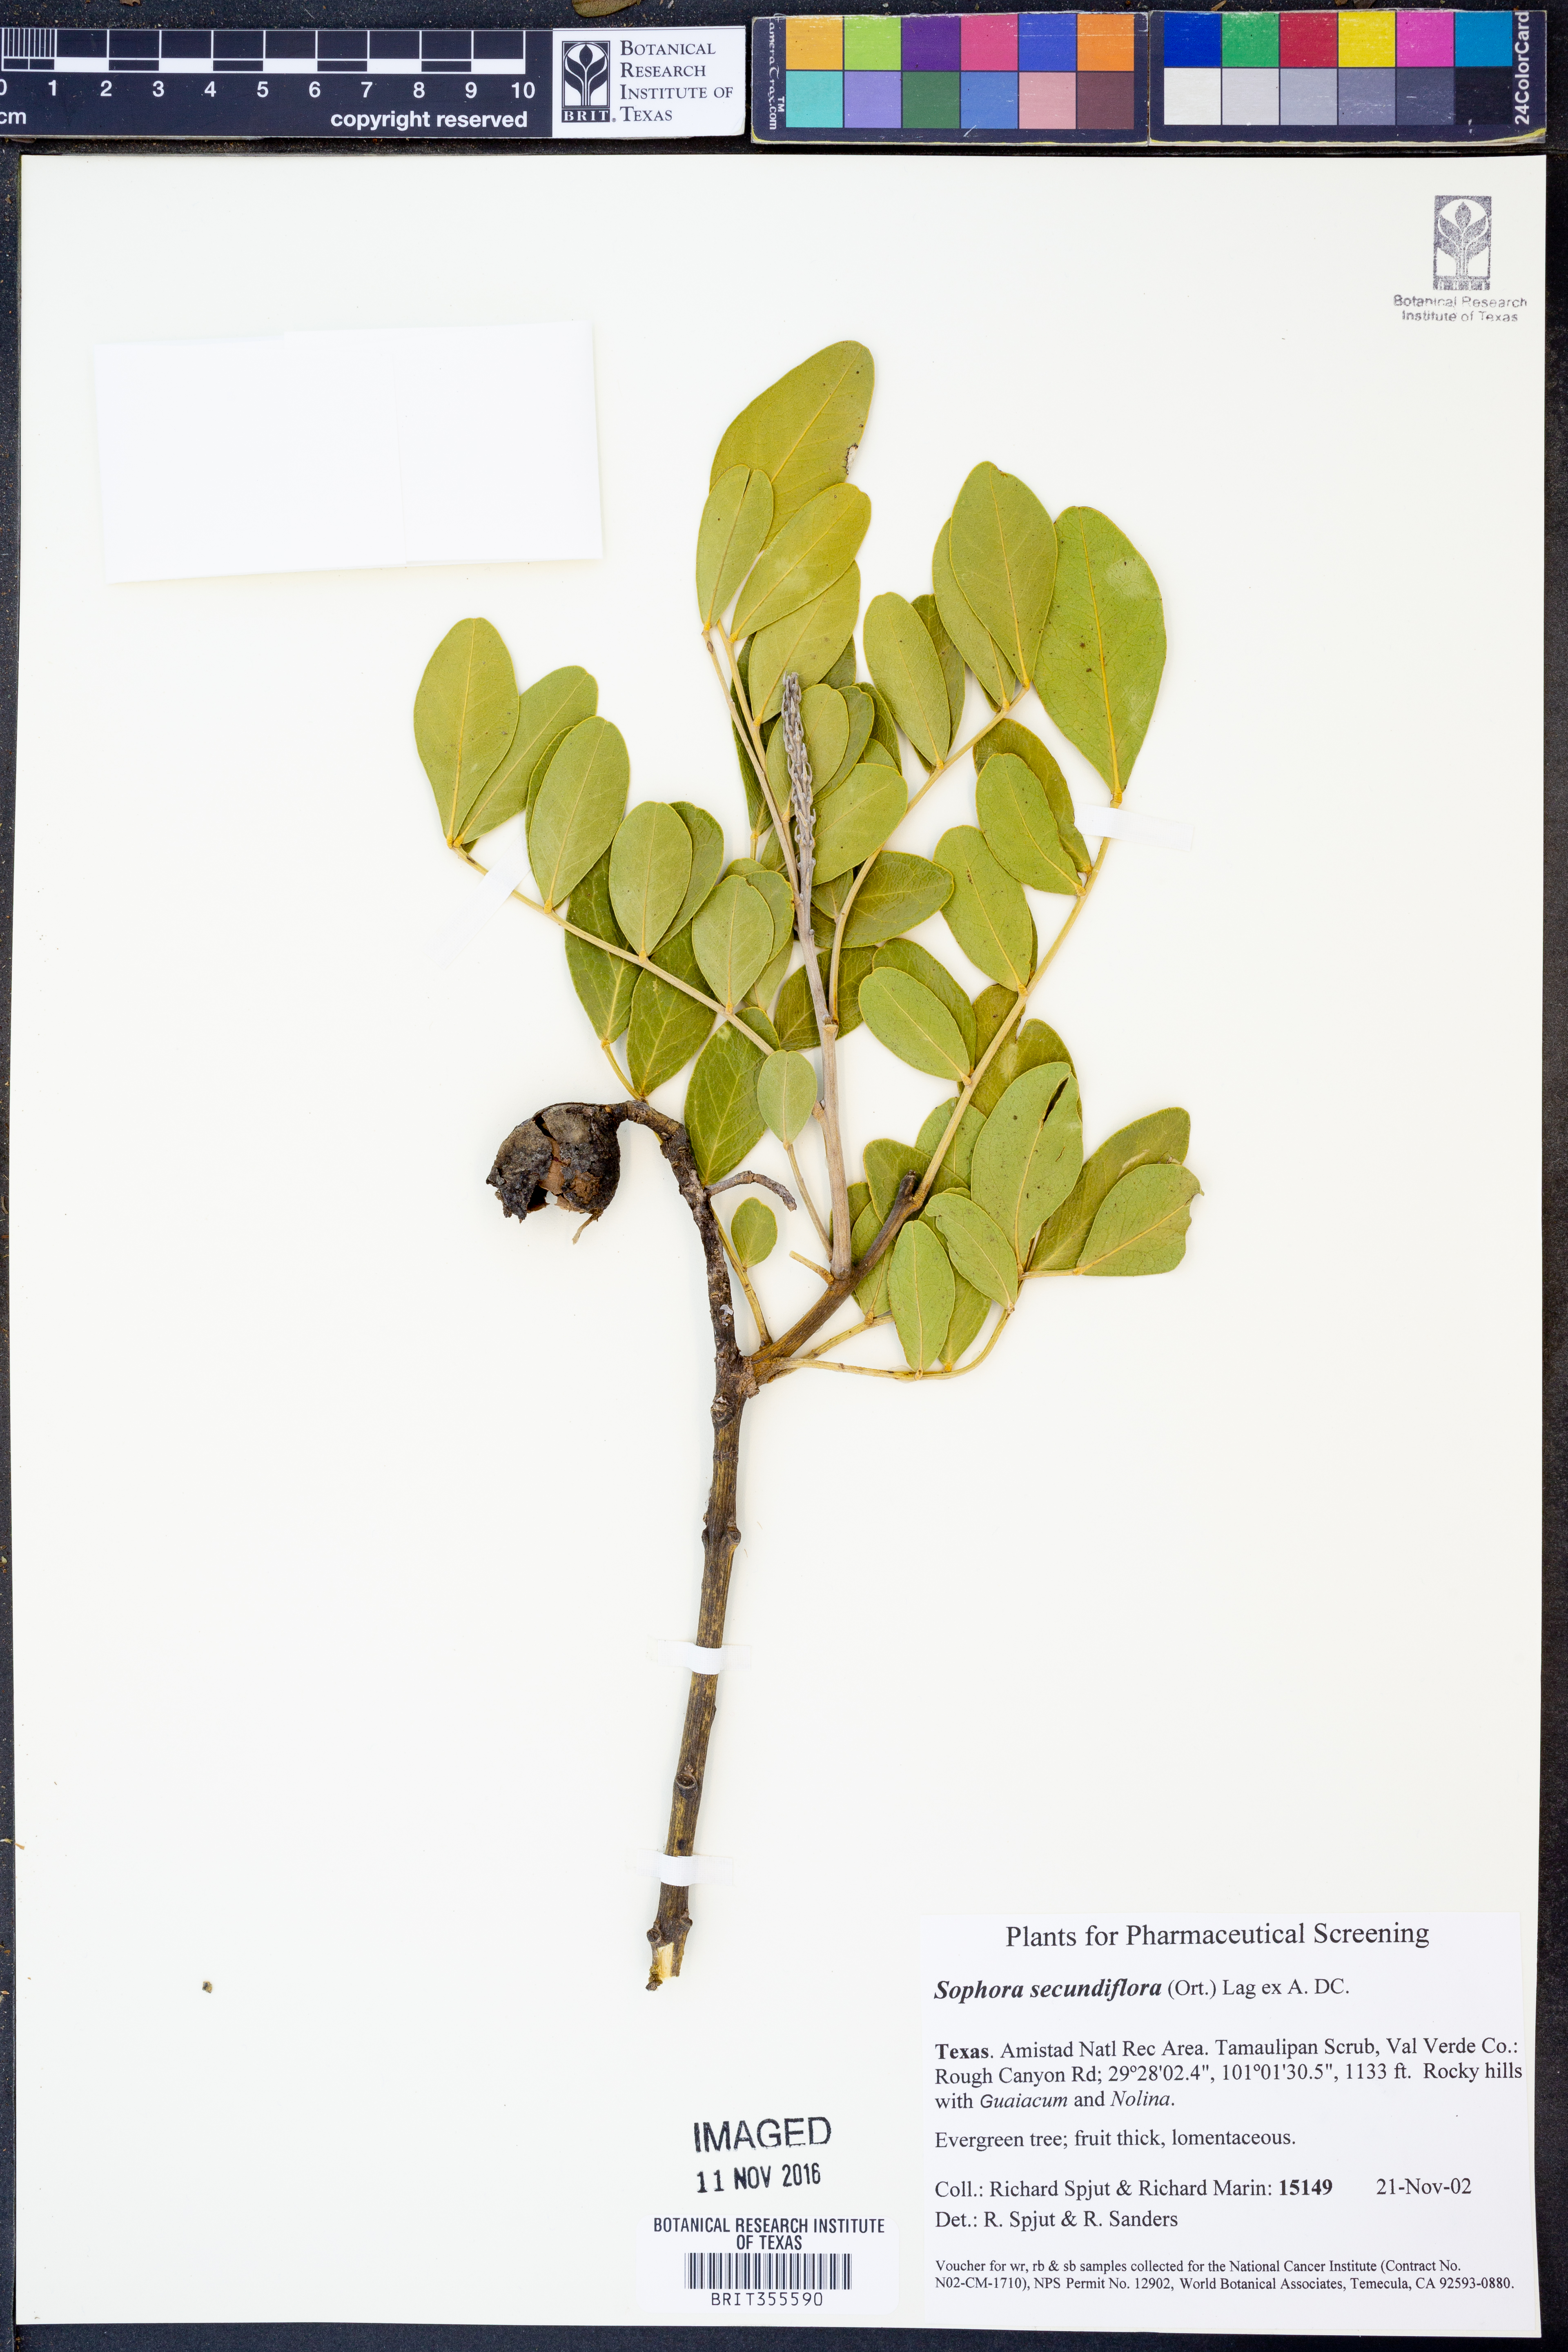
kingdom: Plantae
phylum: Tracheophyta
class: Magnoliopsida
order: Fabales
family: Fabaceae
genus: Dermatophyllum
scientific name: Dermatophyllum secundiflorum
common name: Texas-mountain-laurel
